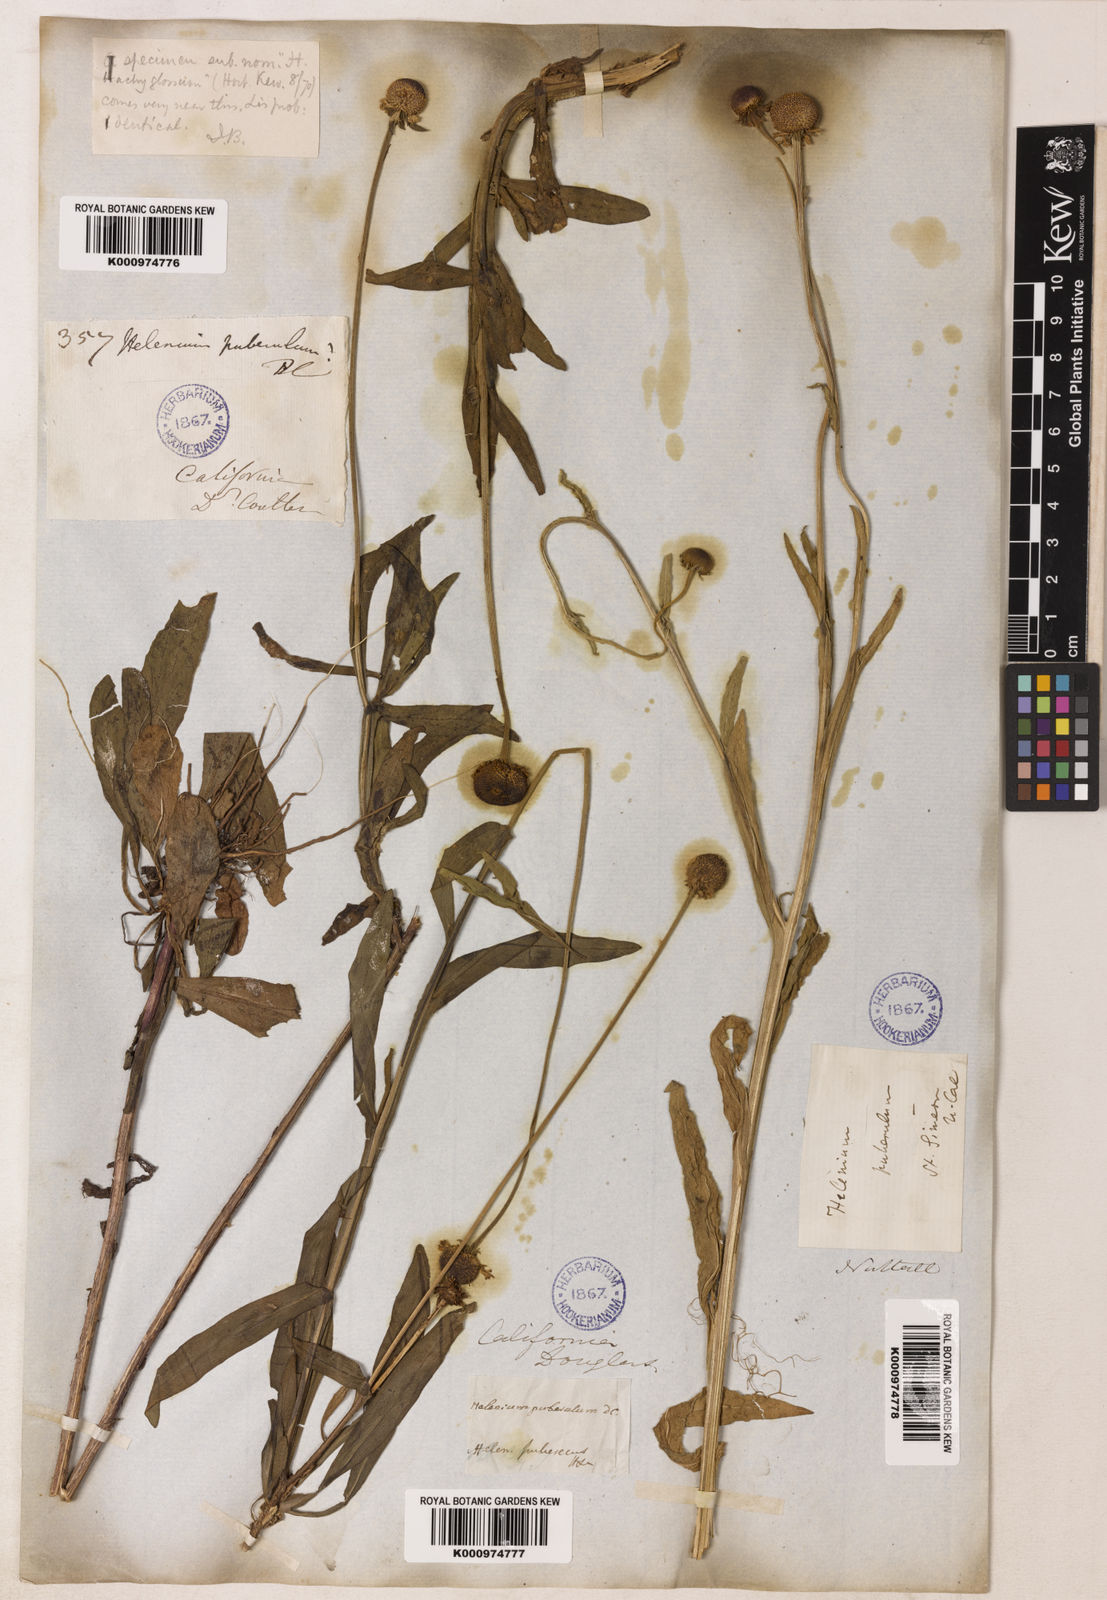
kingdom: Plantae
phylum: Tracheophyta
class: Magnoliopsida
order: Asterales
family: Asteraceae
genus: Helenium
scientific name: Helenium puberulum
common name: Sneezewort
